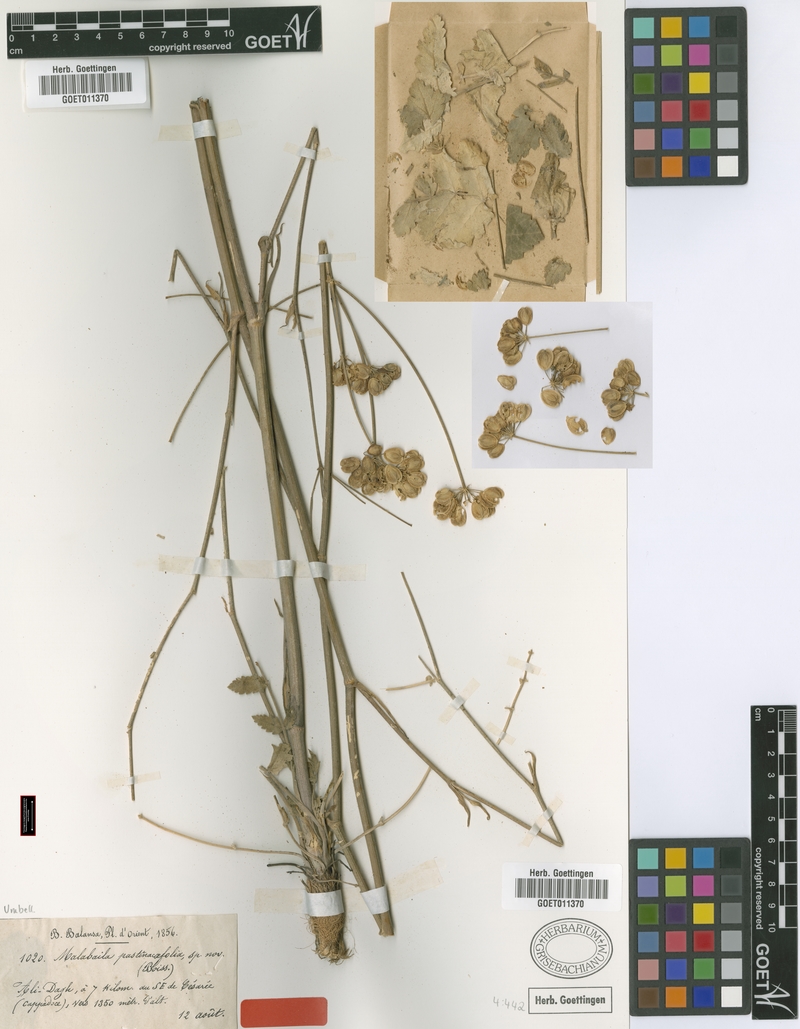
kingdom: Plantae
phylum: Tracheophyta
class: Magnoliopsida
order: Apiales
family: Apiaceae
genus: Leiotulus
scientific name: Leiotulus pastinacifolius
